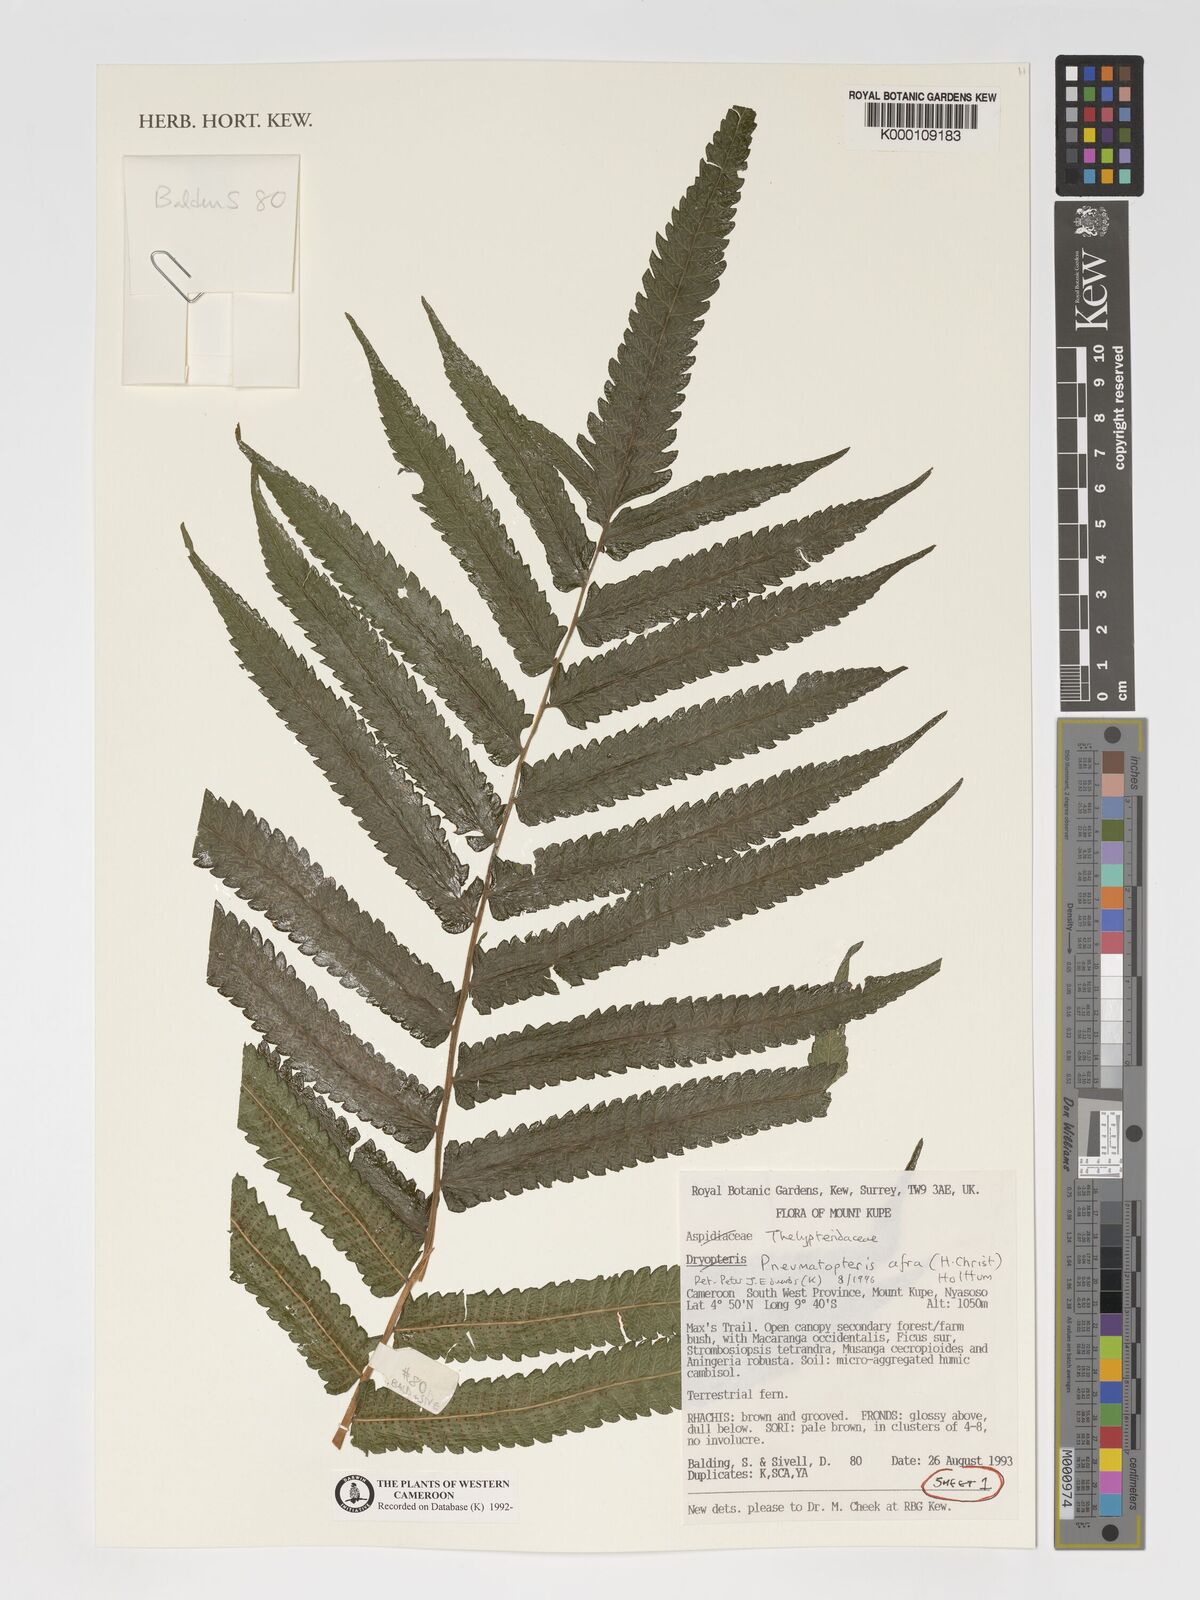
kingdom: Plantae
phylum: Tracheophyta
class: Polypodiopsida
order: Polypodiales
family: Thelypteridaceae
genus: Abacopteris
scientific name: Abacopteris afra
